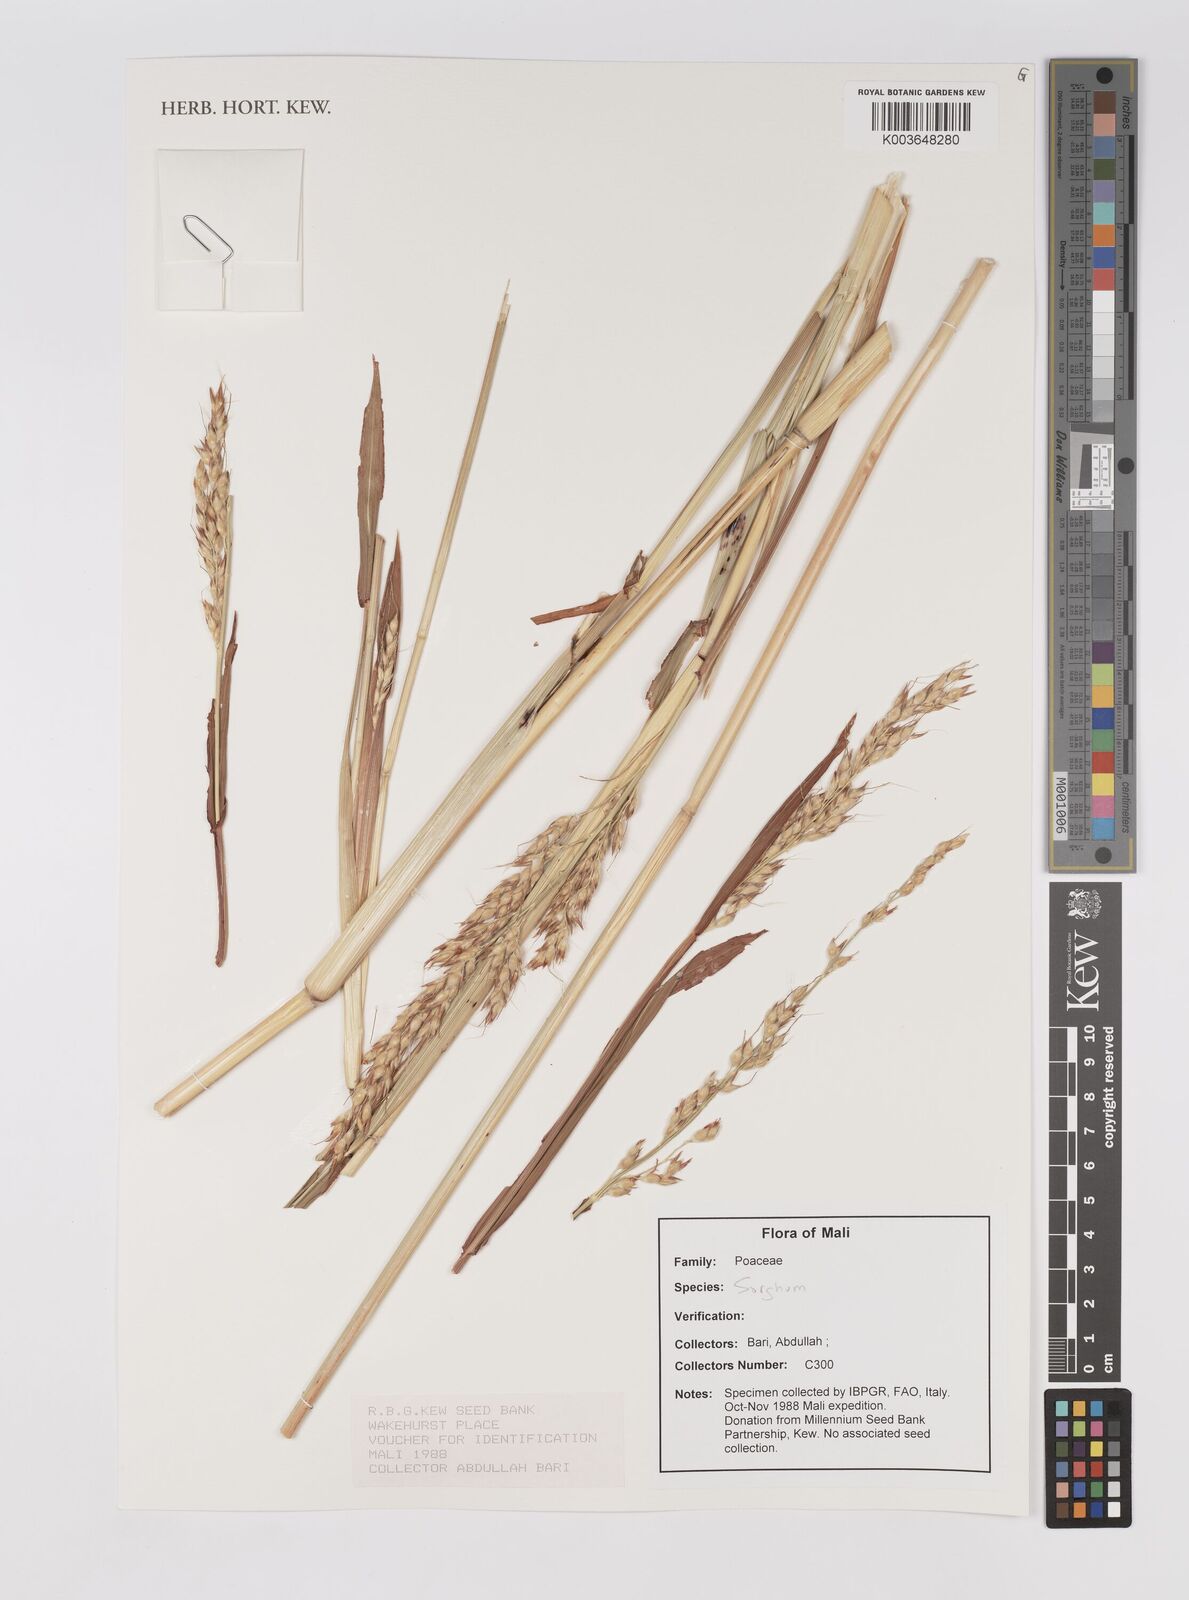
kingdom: Plantae
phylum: Tracheophyta
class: Liliopsida
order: Poales
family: Poaceae
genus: Sorghum
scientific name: Sorghum
